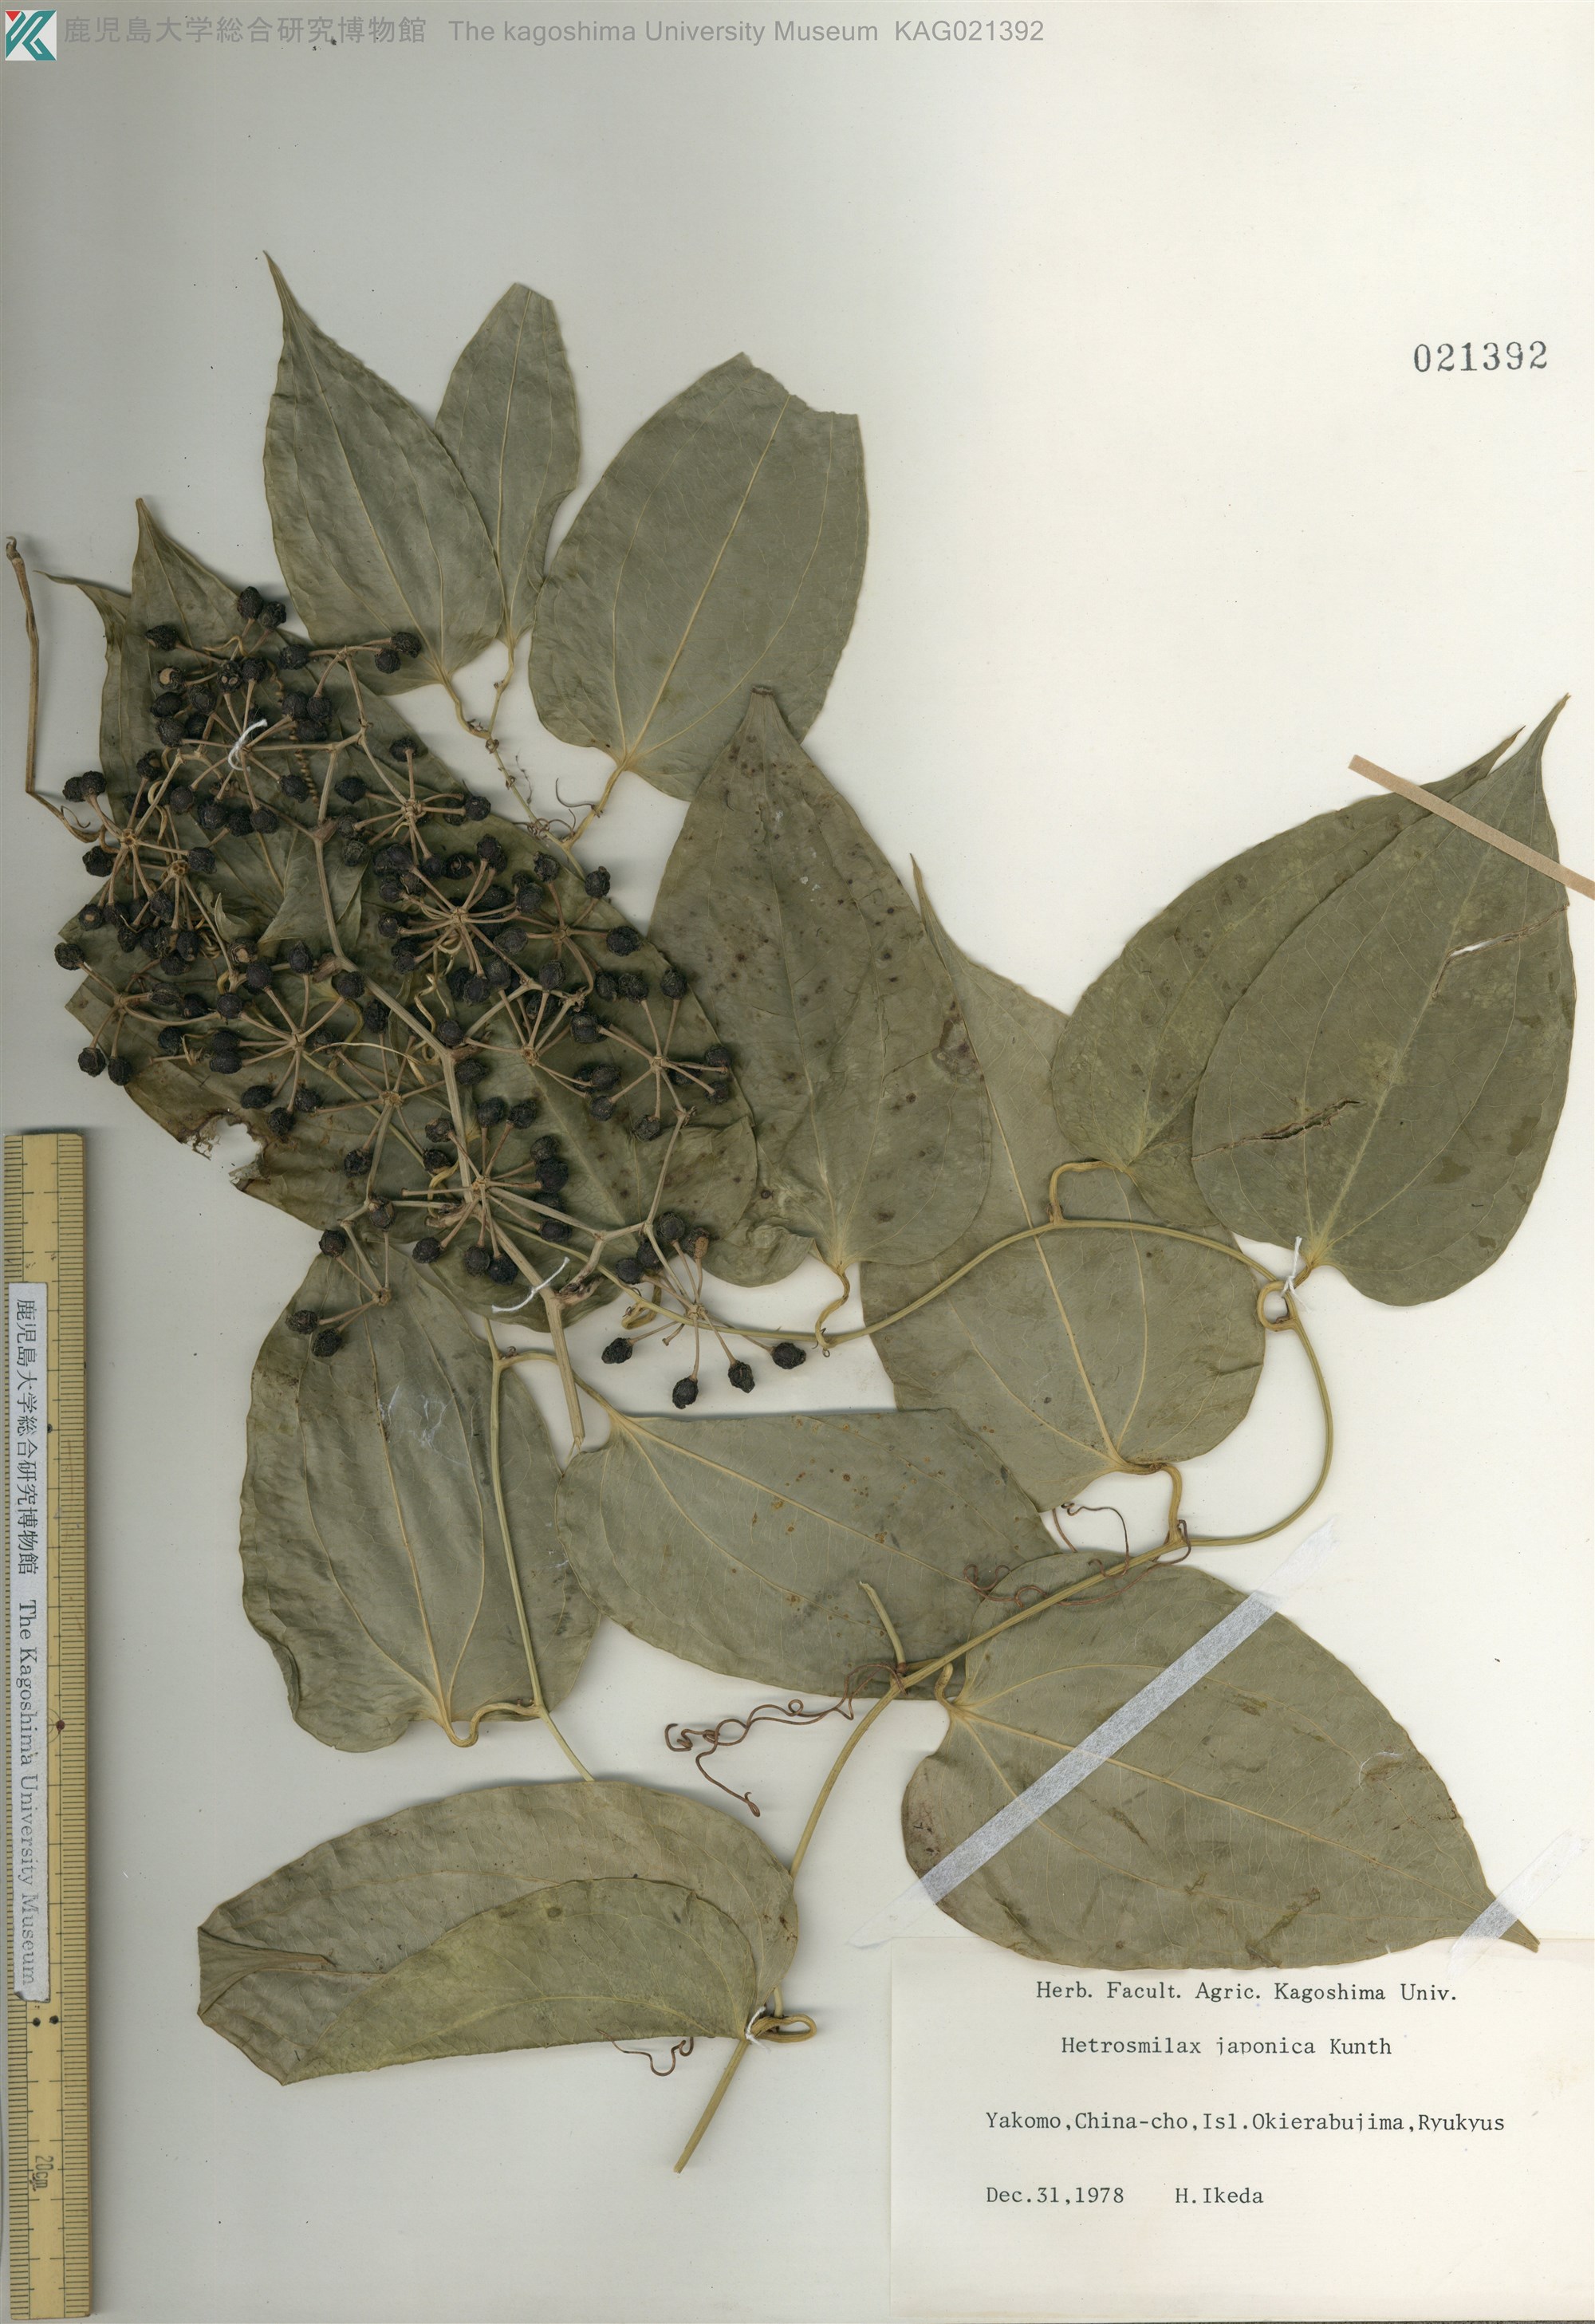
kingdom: Plantae
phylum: Tracheophyta
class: Liliopsida
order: Liliales
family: Smilacaceae
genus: Smilax
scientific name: Smilax insularis
